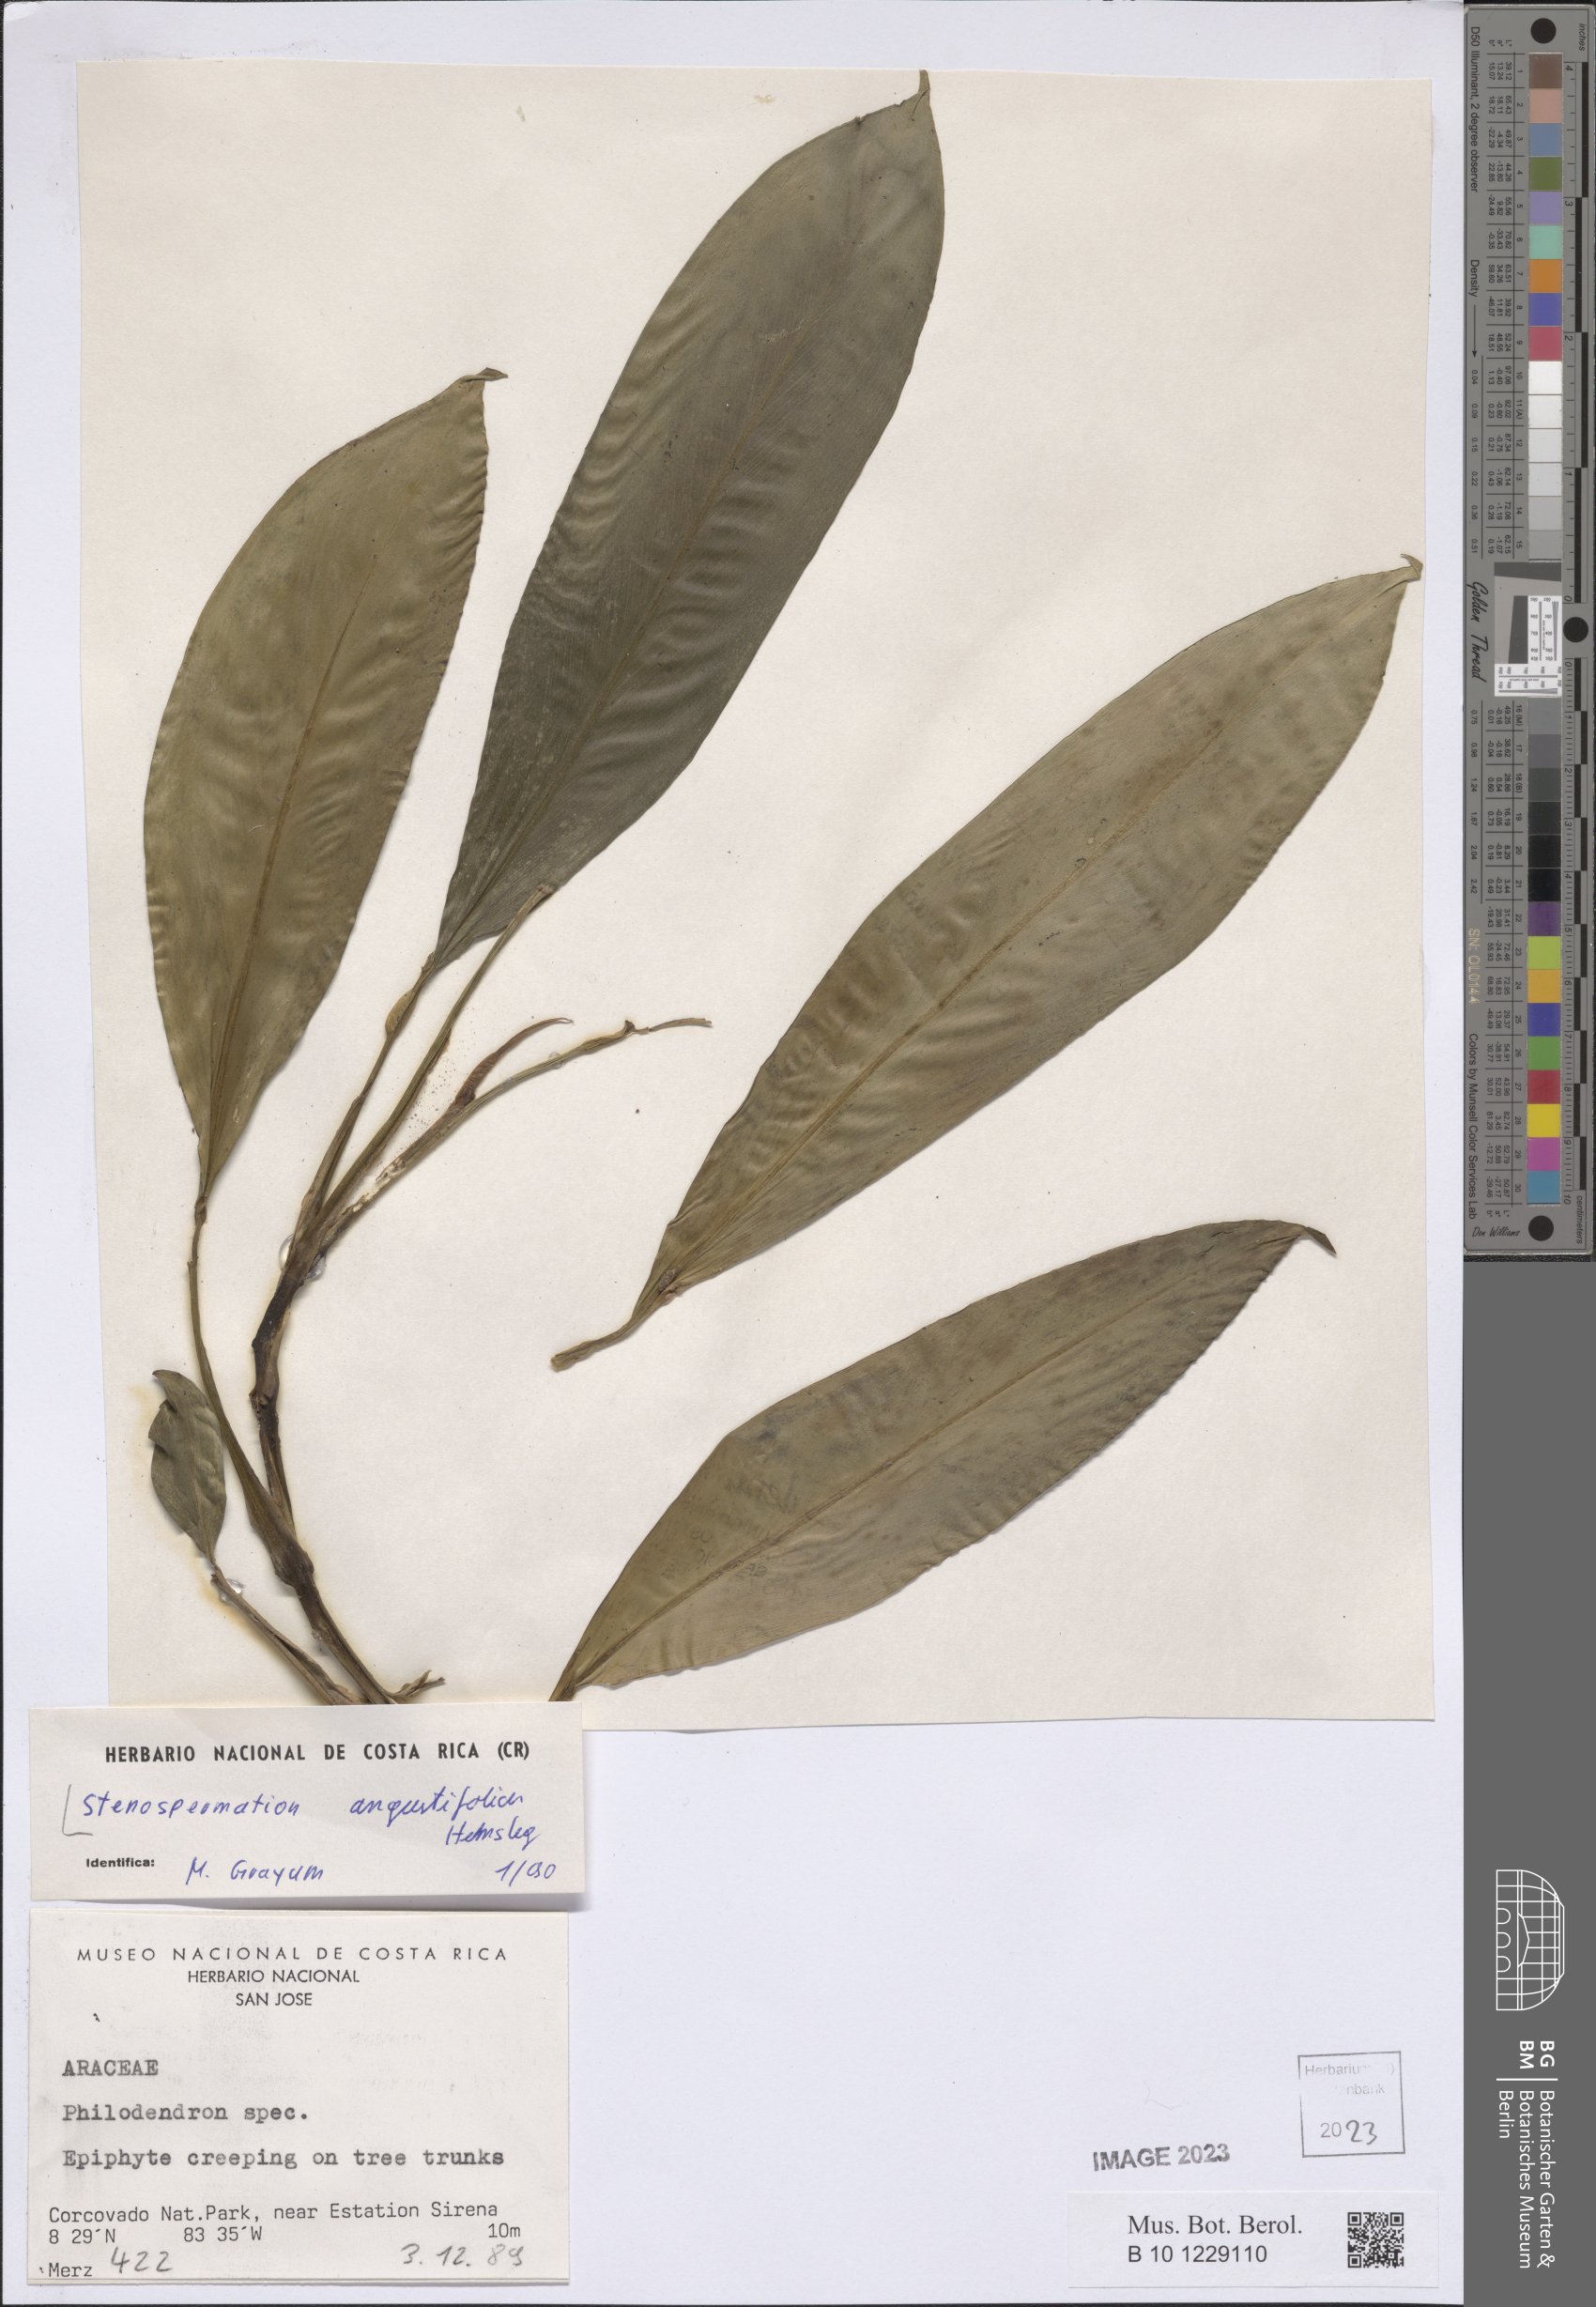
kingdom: Plantae
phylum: Tracheophyta
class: Liliopsida
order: Alismatales
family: Araceae
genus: Stenospermation
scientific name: Stenospermation angustifolium
